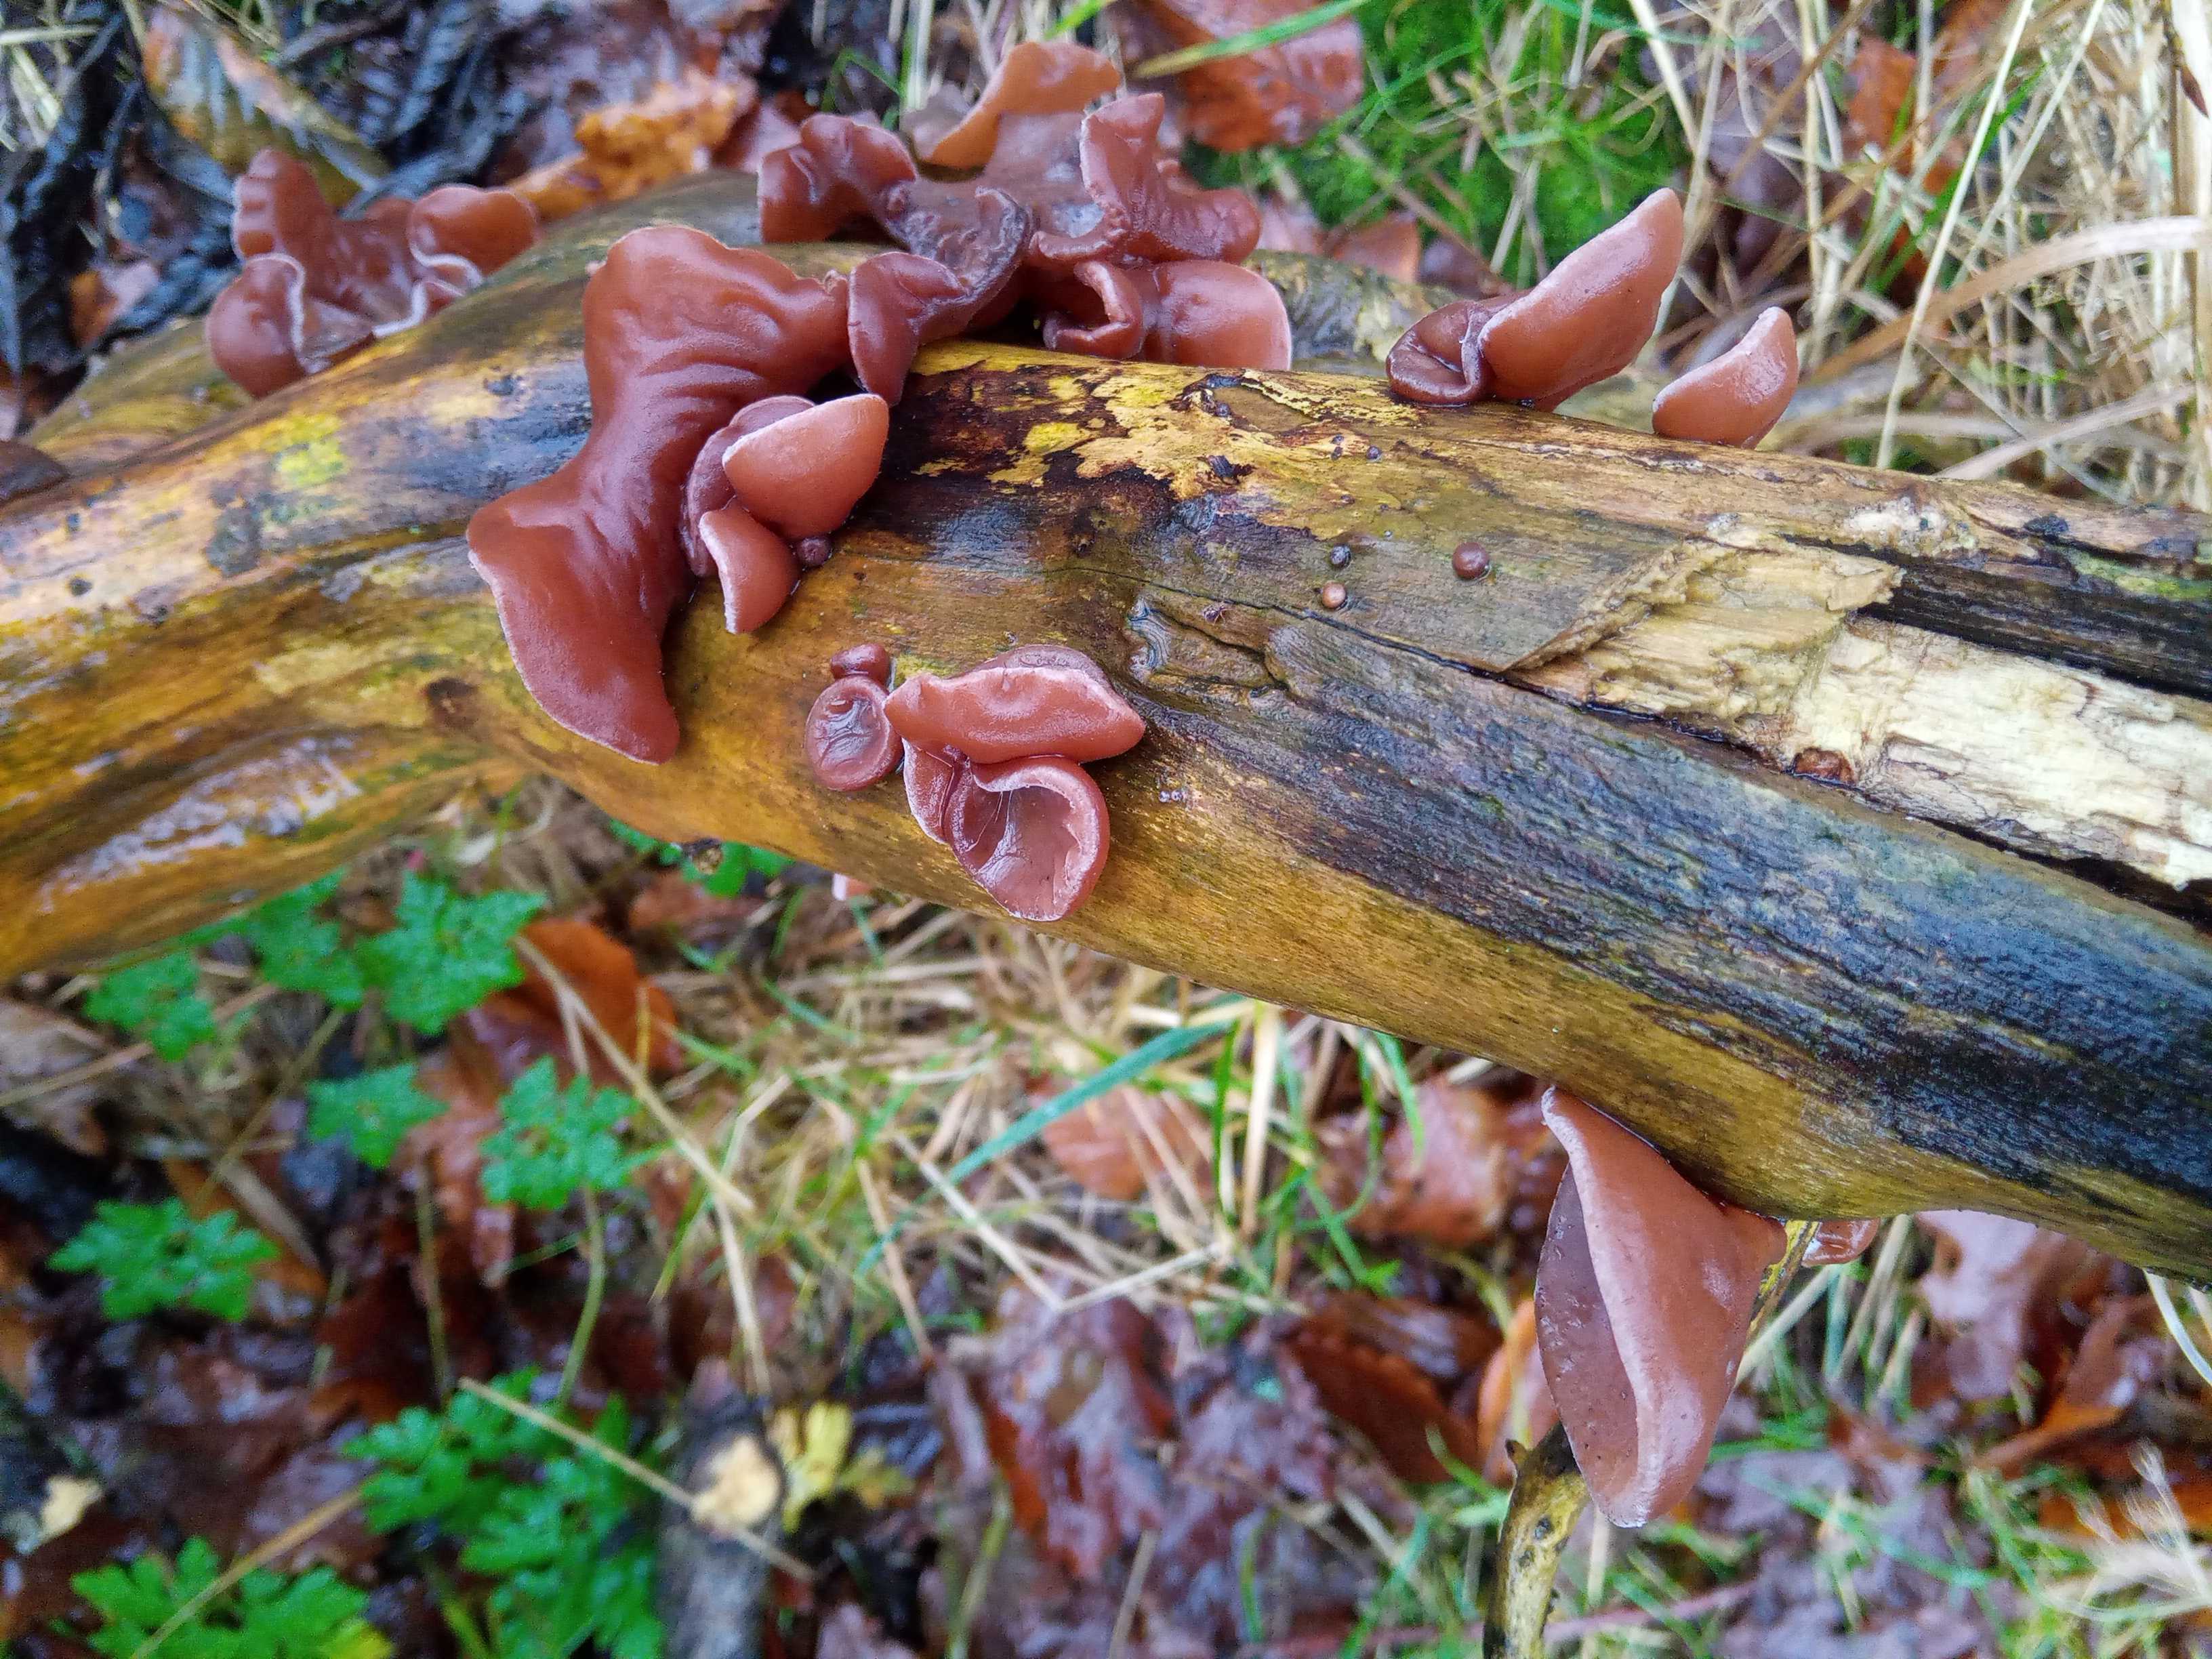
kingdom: Fungi
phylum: Basidiomycota
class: Agaricomycetes
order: Auriculariales
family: Auriculariaceae
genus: Auricularia
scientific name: Auricularia auricula-judae
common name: almindelig judasøre
